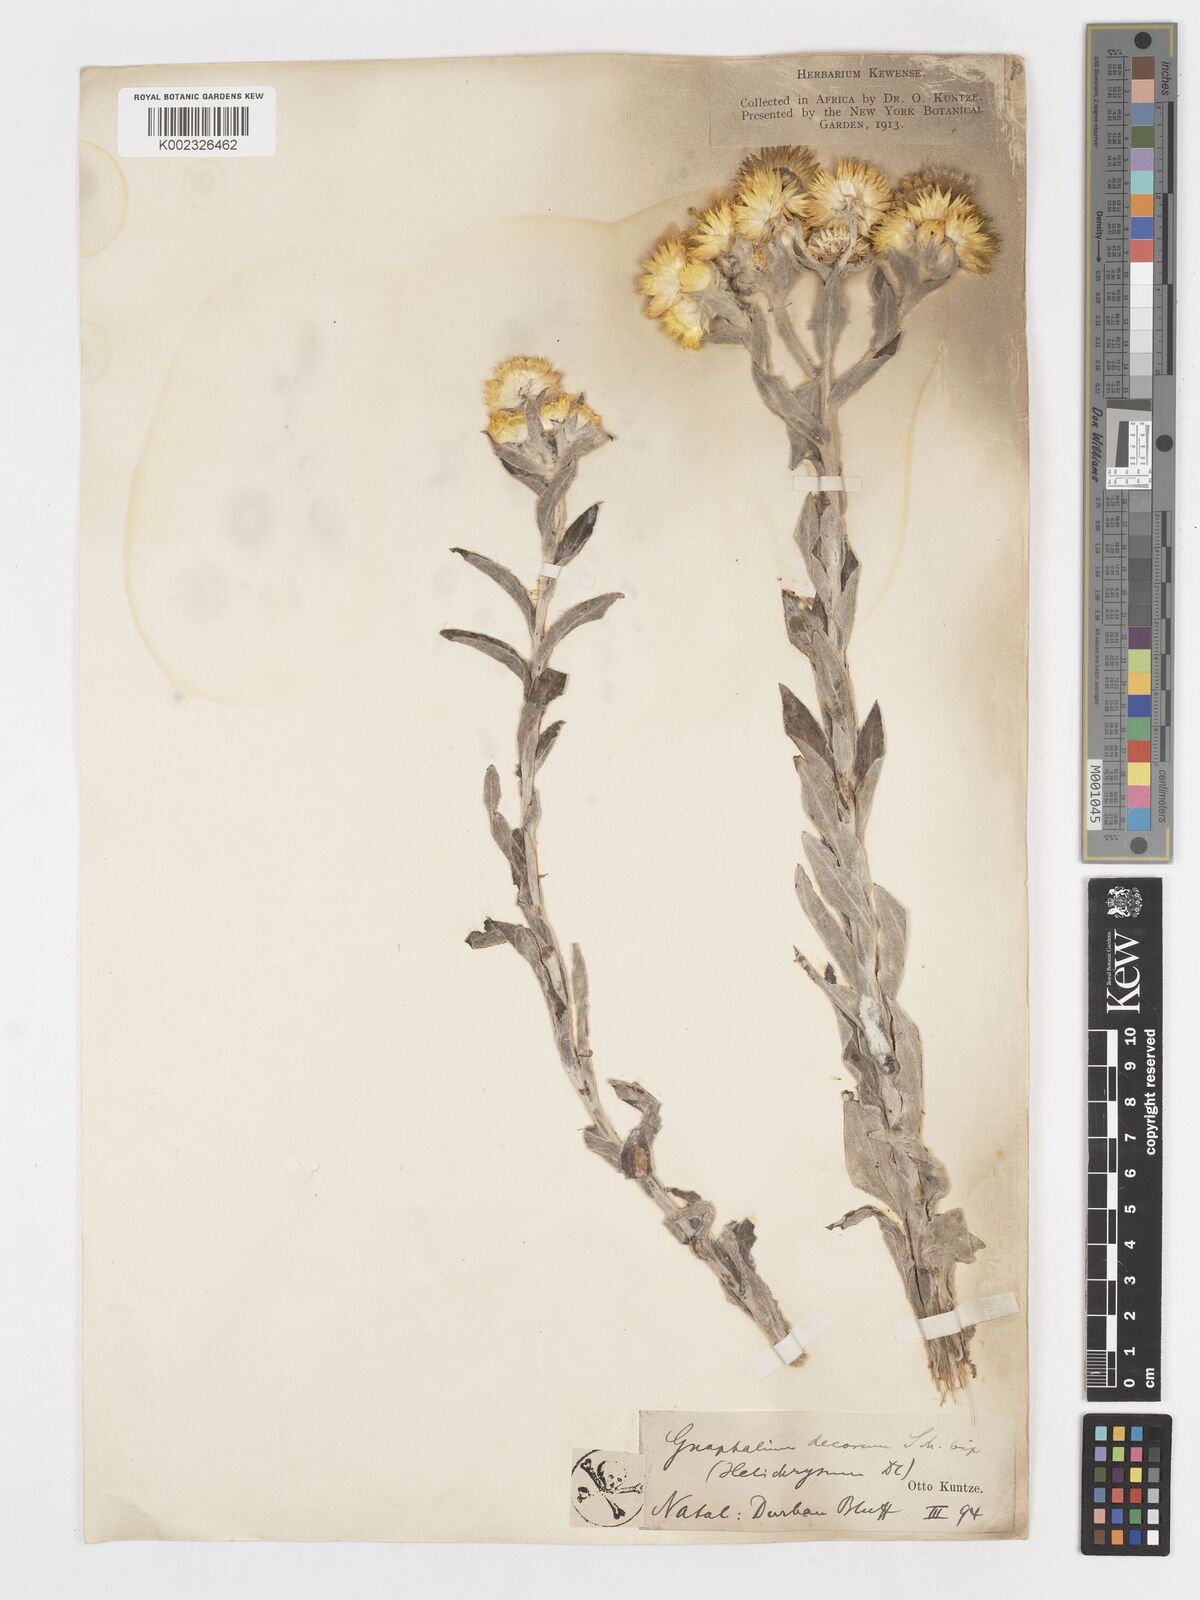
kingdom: Plantae
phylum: Tracheophyta
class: Magnoliopsida
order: Asterales
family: Asteraceae
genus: Helichrysum
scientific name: Helichrysum decorum
